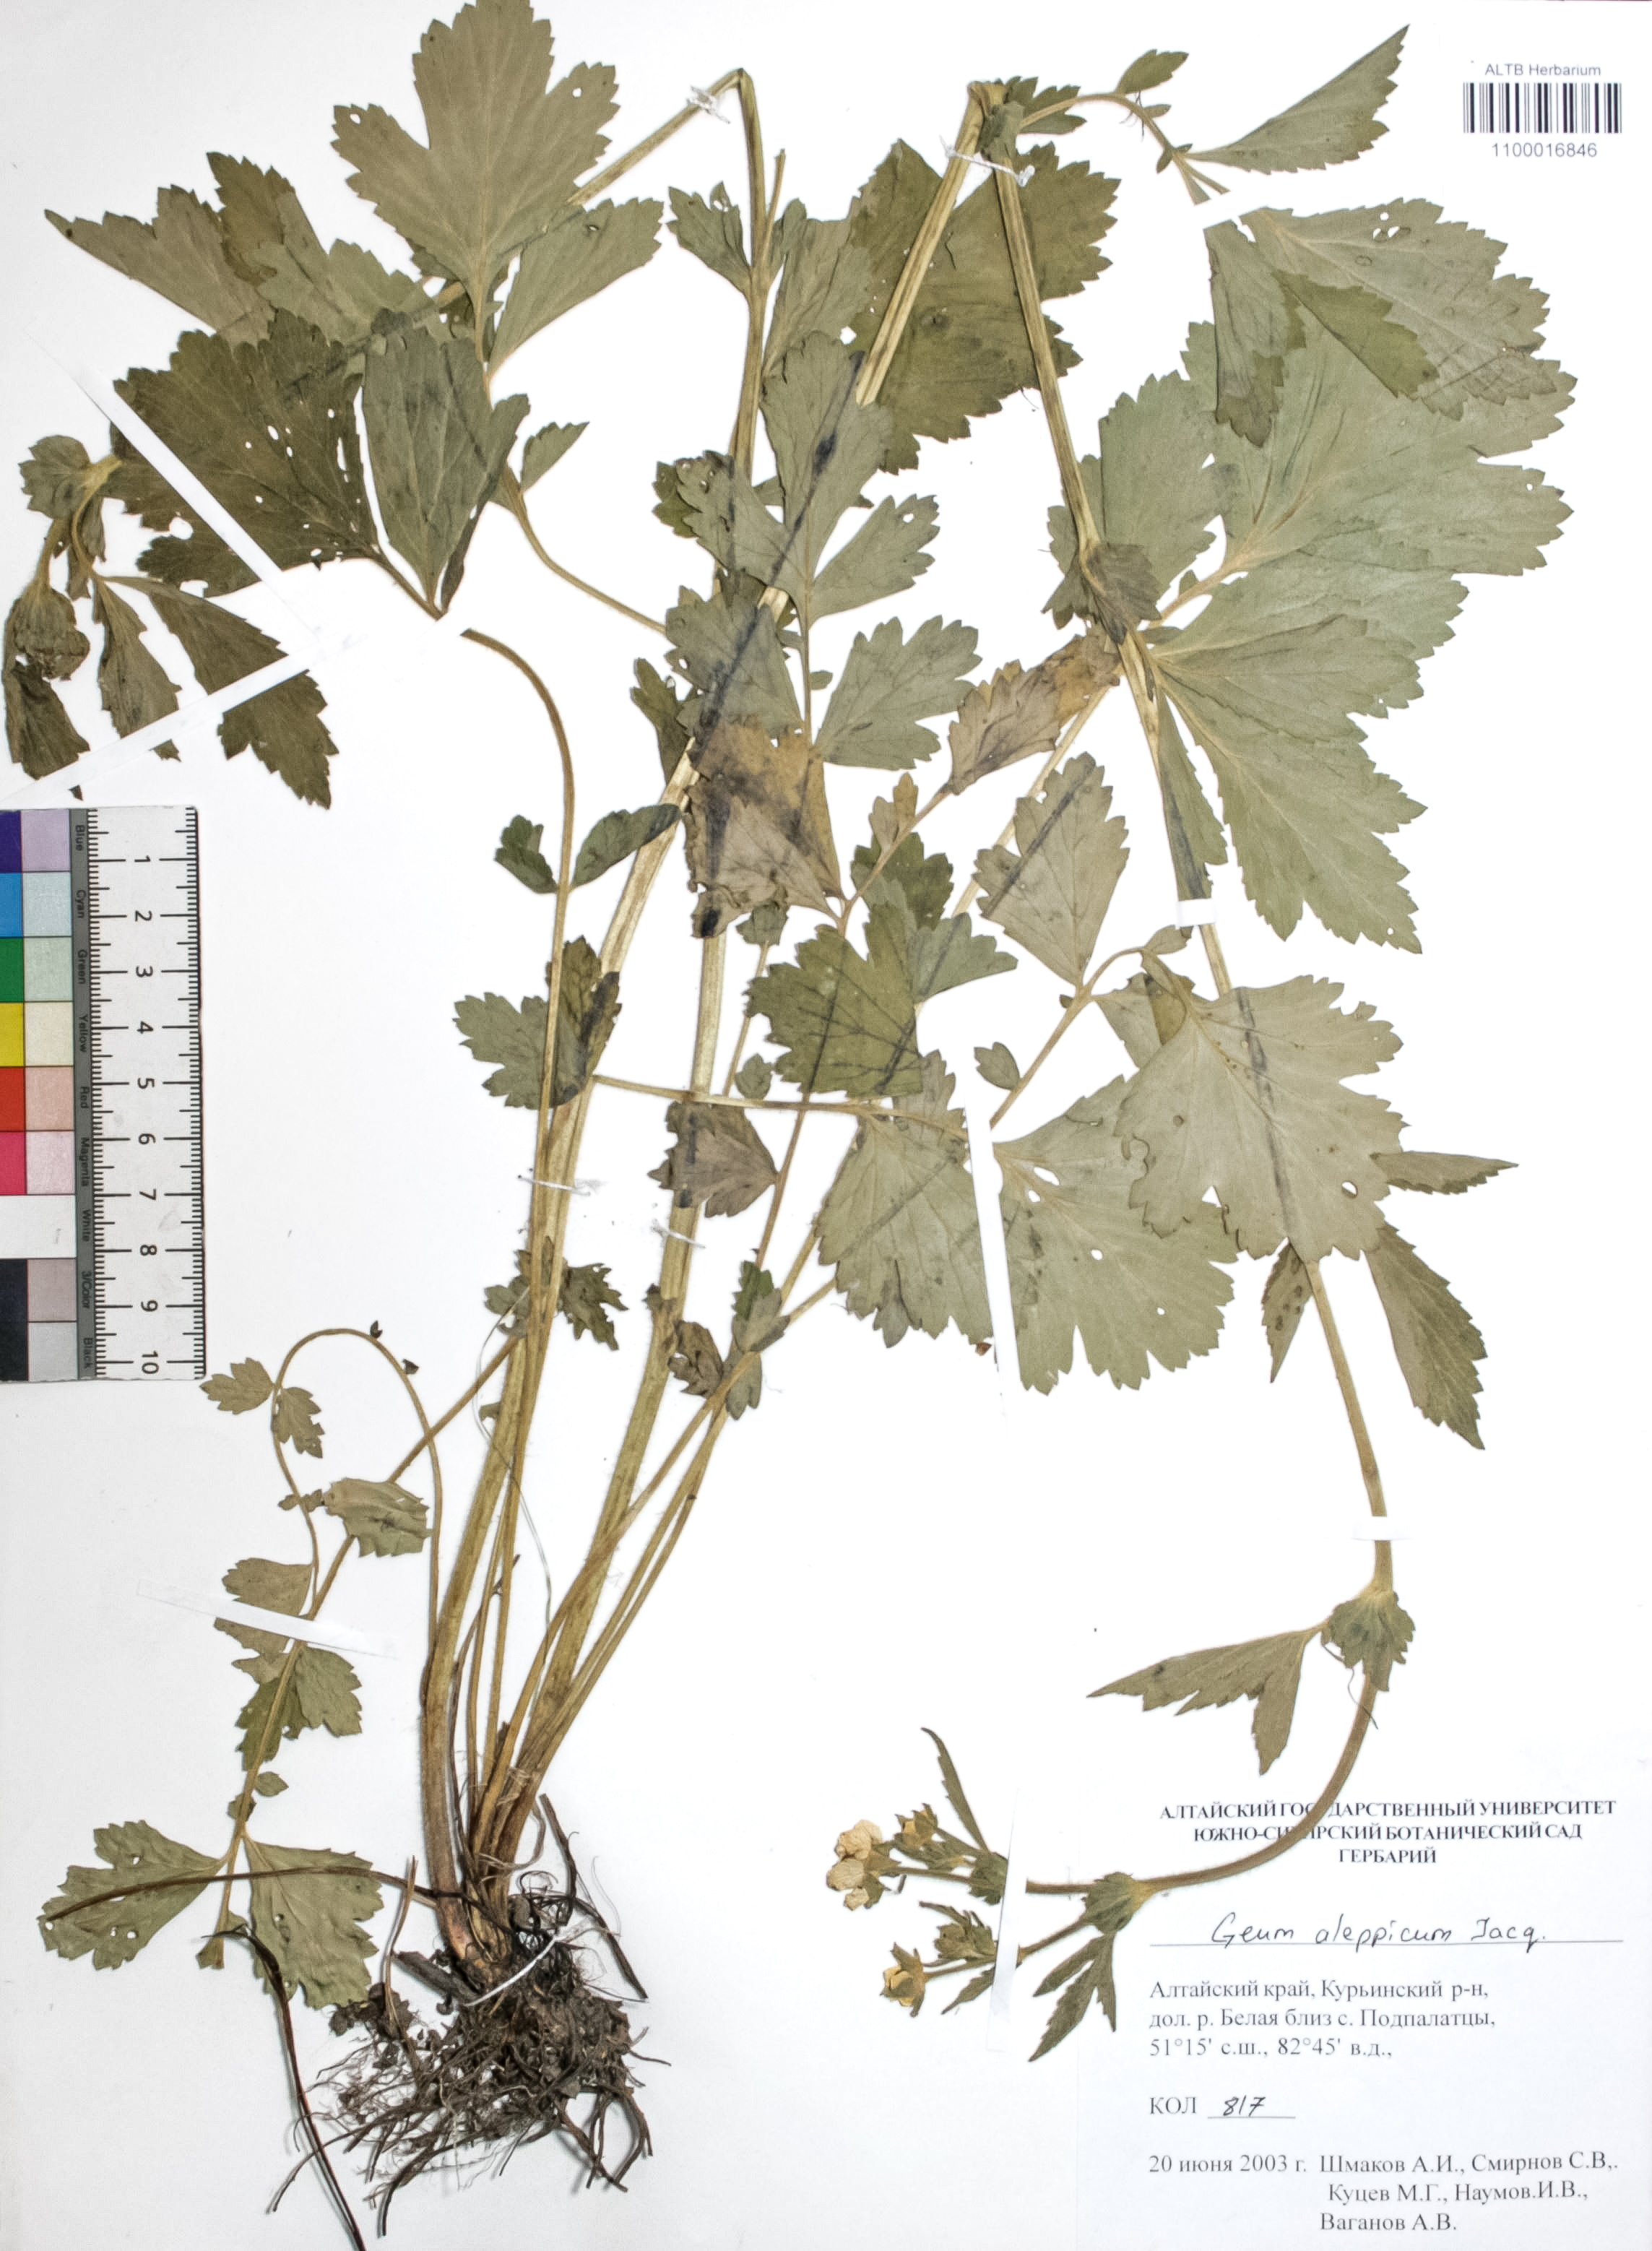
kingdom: Plantae
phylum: Tracheophyta
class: Magnoliopsida
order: Rosales
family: Rosaceae
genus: Geum
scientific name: Geum aleppicum
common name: Yellow avens
